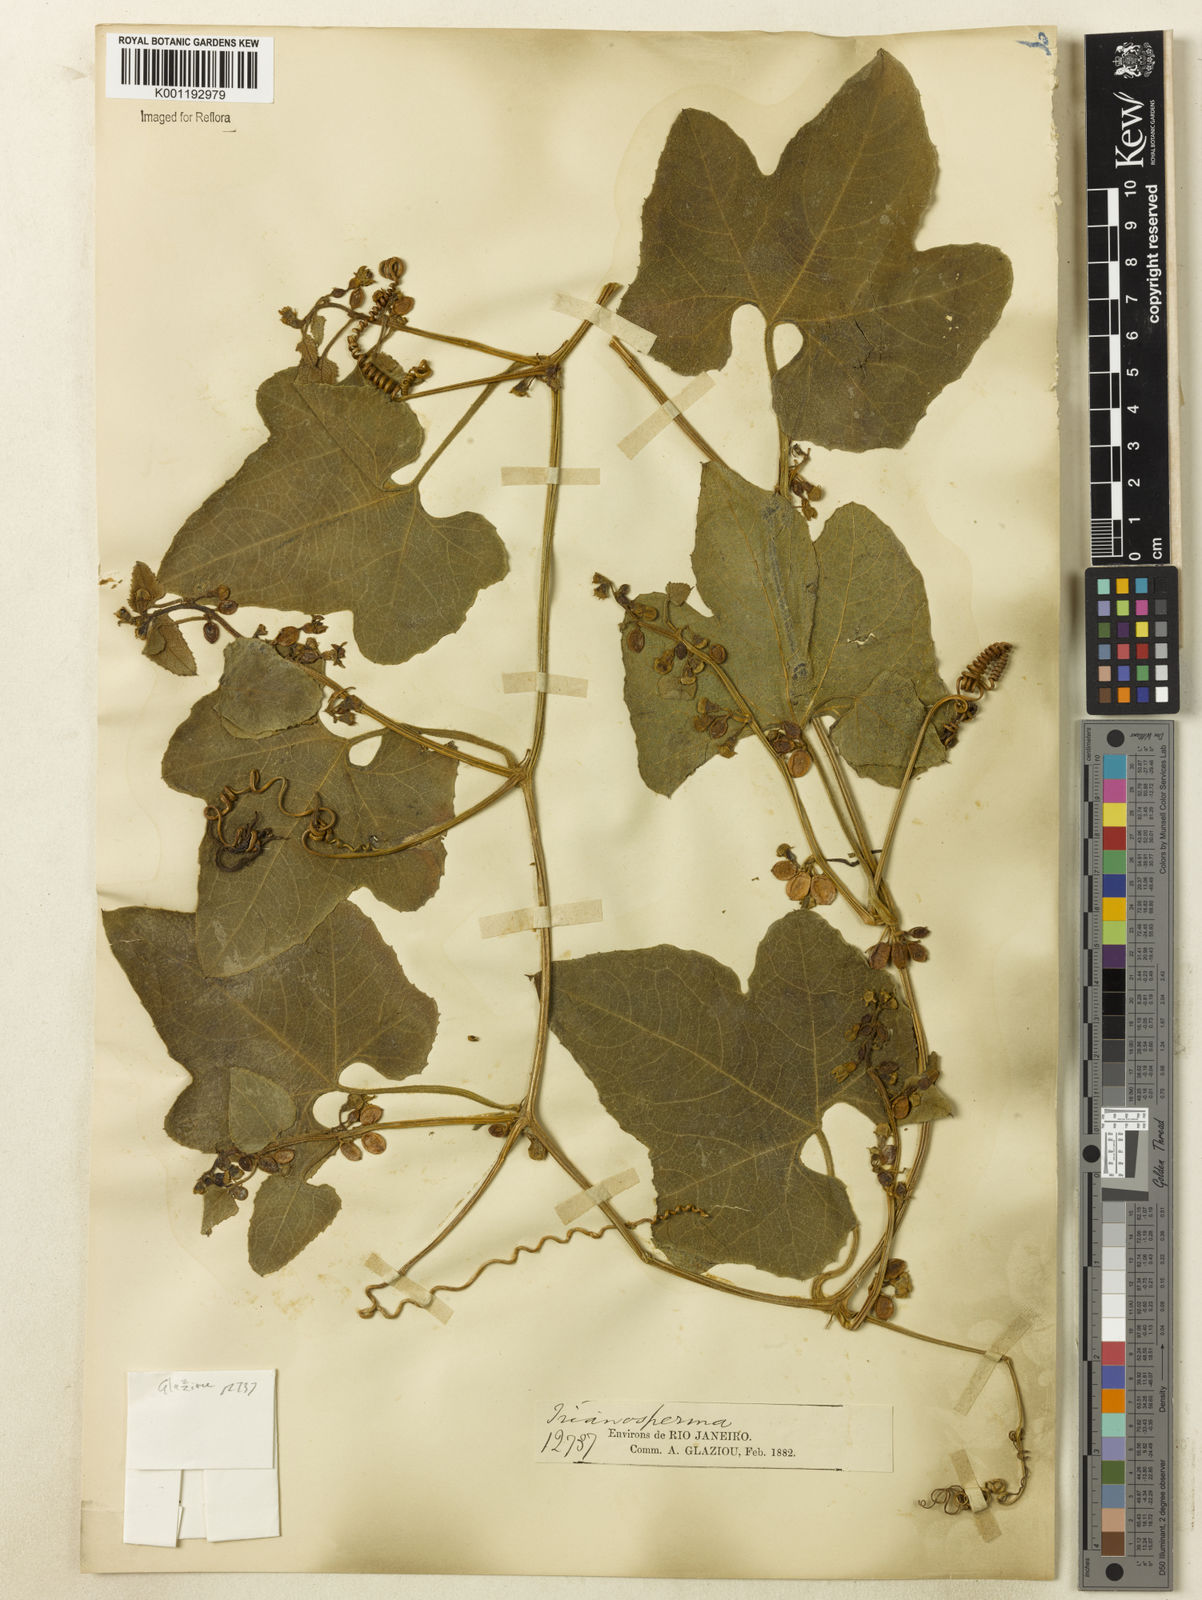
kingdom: Plantae
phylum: Tracheophyta
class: Magnoliopsida
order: Cucurbitales
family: Cucurbitaceae
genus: Cayaponia
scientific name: Cayaponia floribunda
